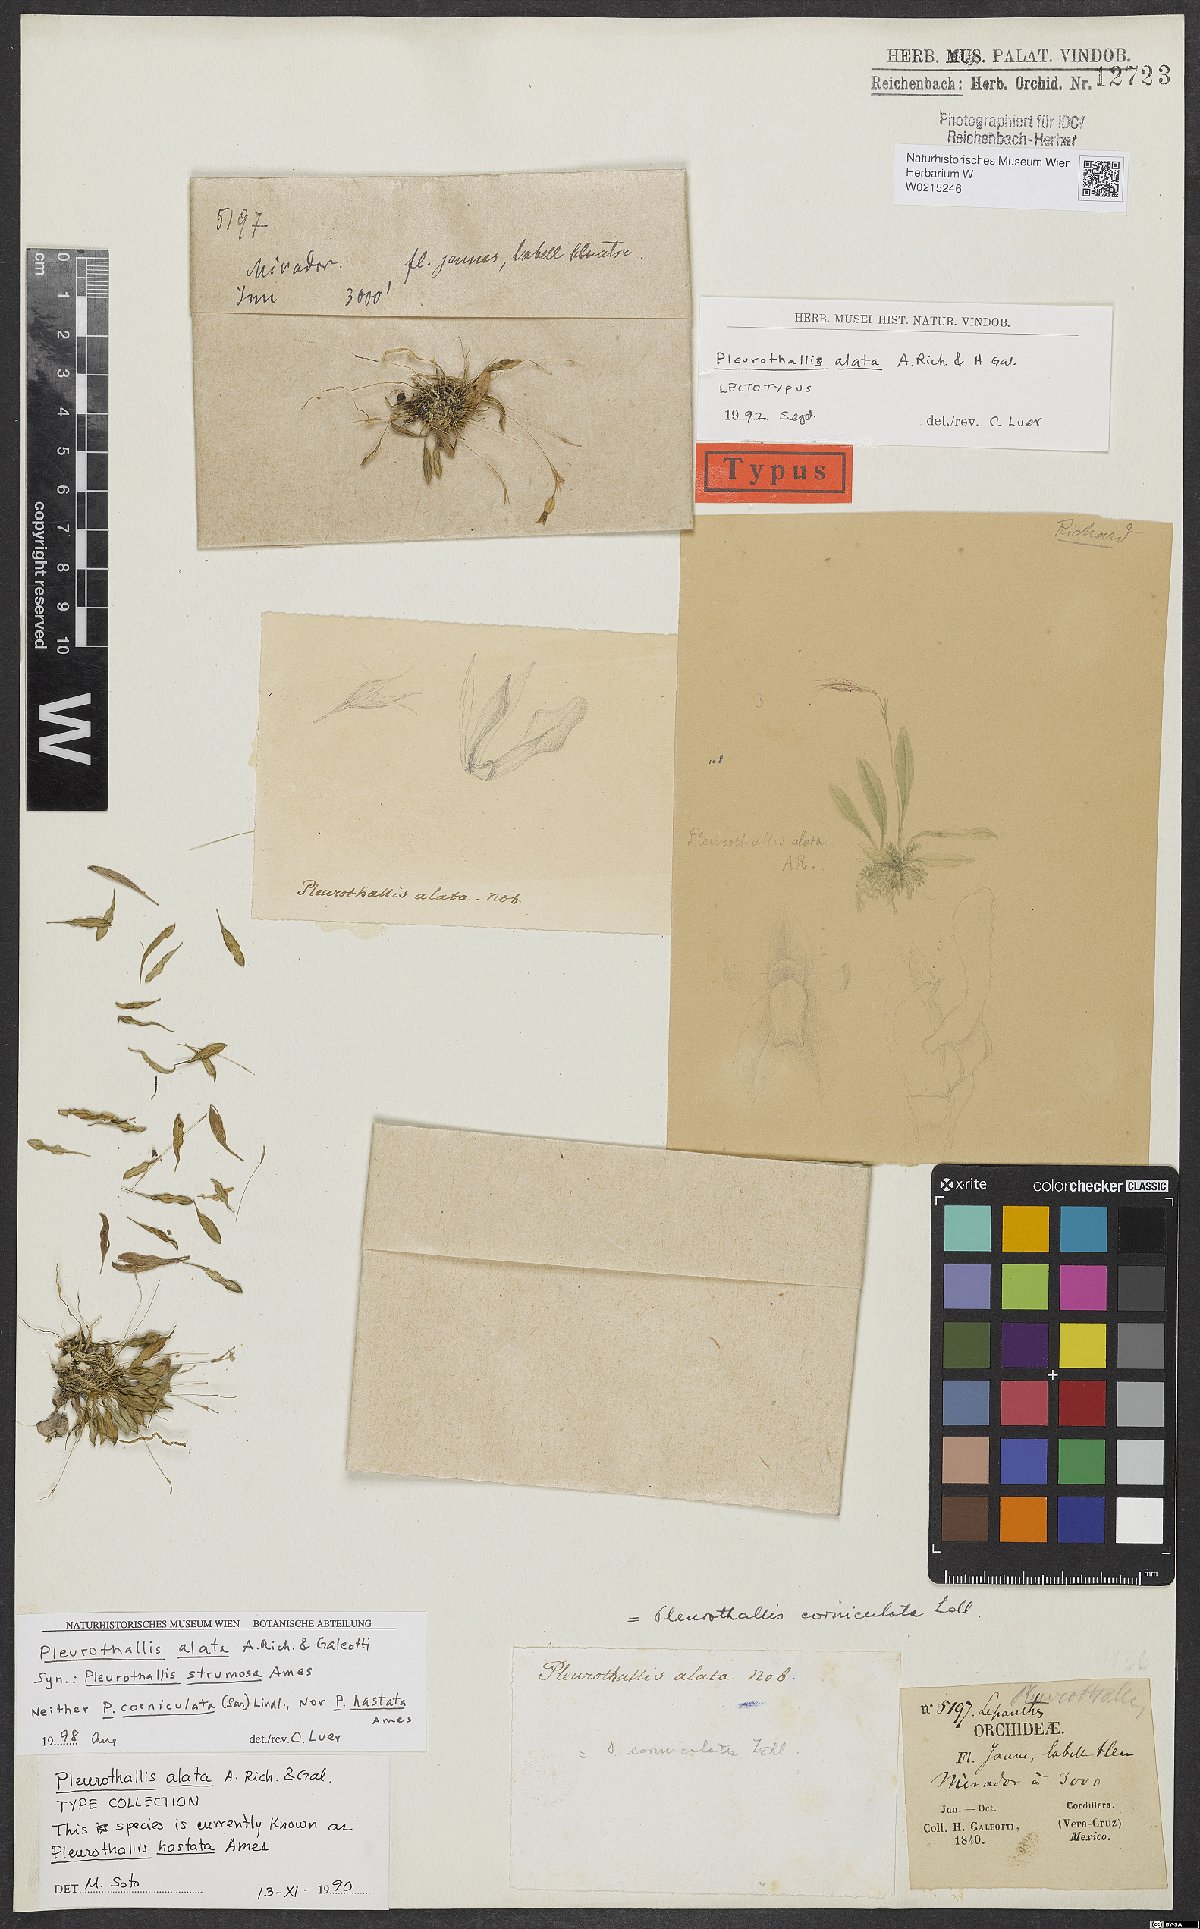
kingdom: Plantae
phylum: Tracheophyta
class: Liliopsida
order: Asparagales
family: Orchidaceae
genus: Muscarella
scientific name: Muscarella marginata
